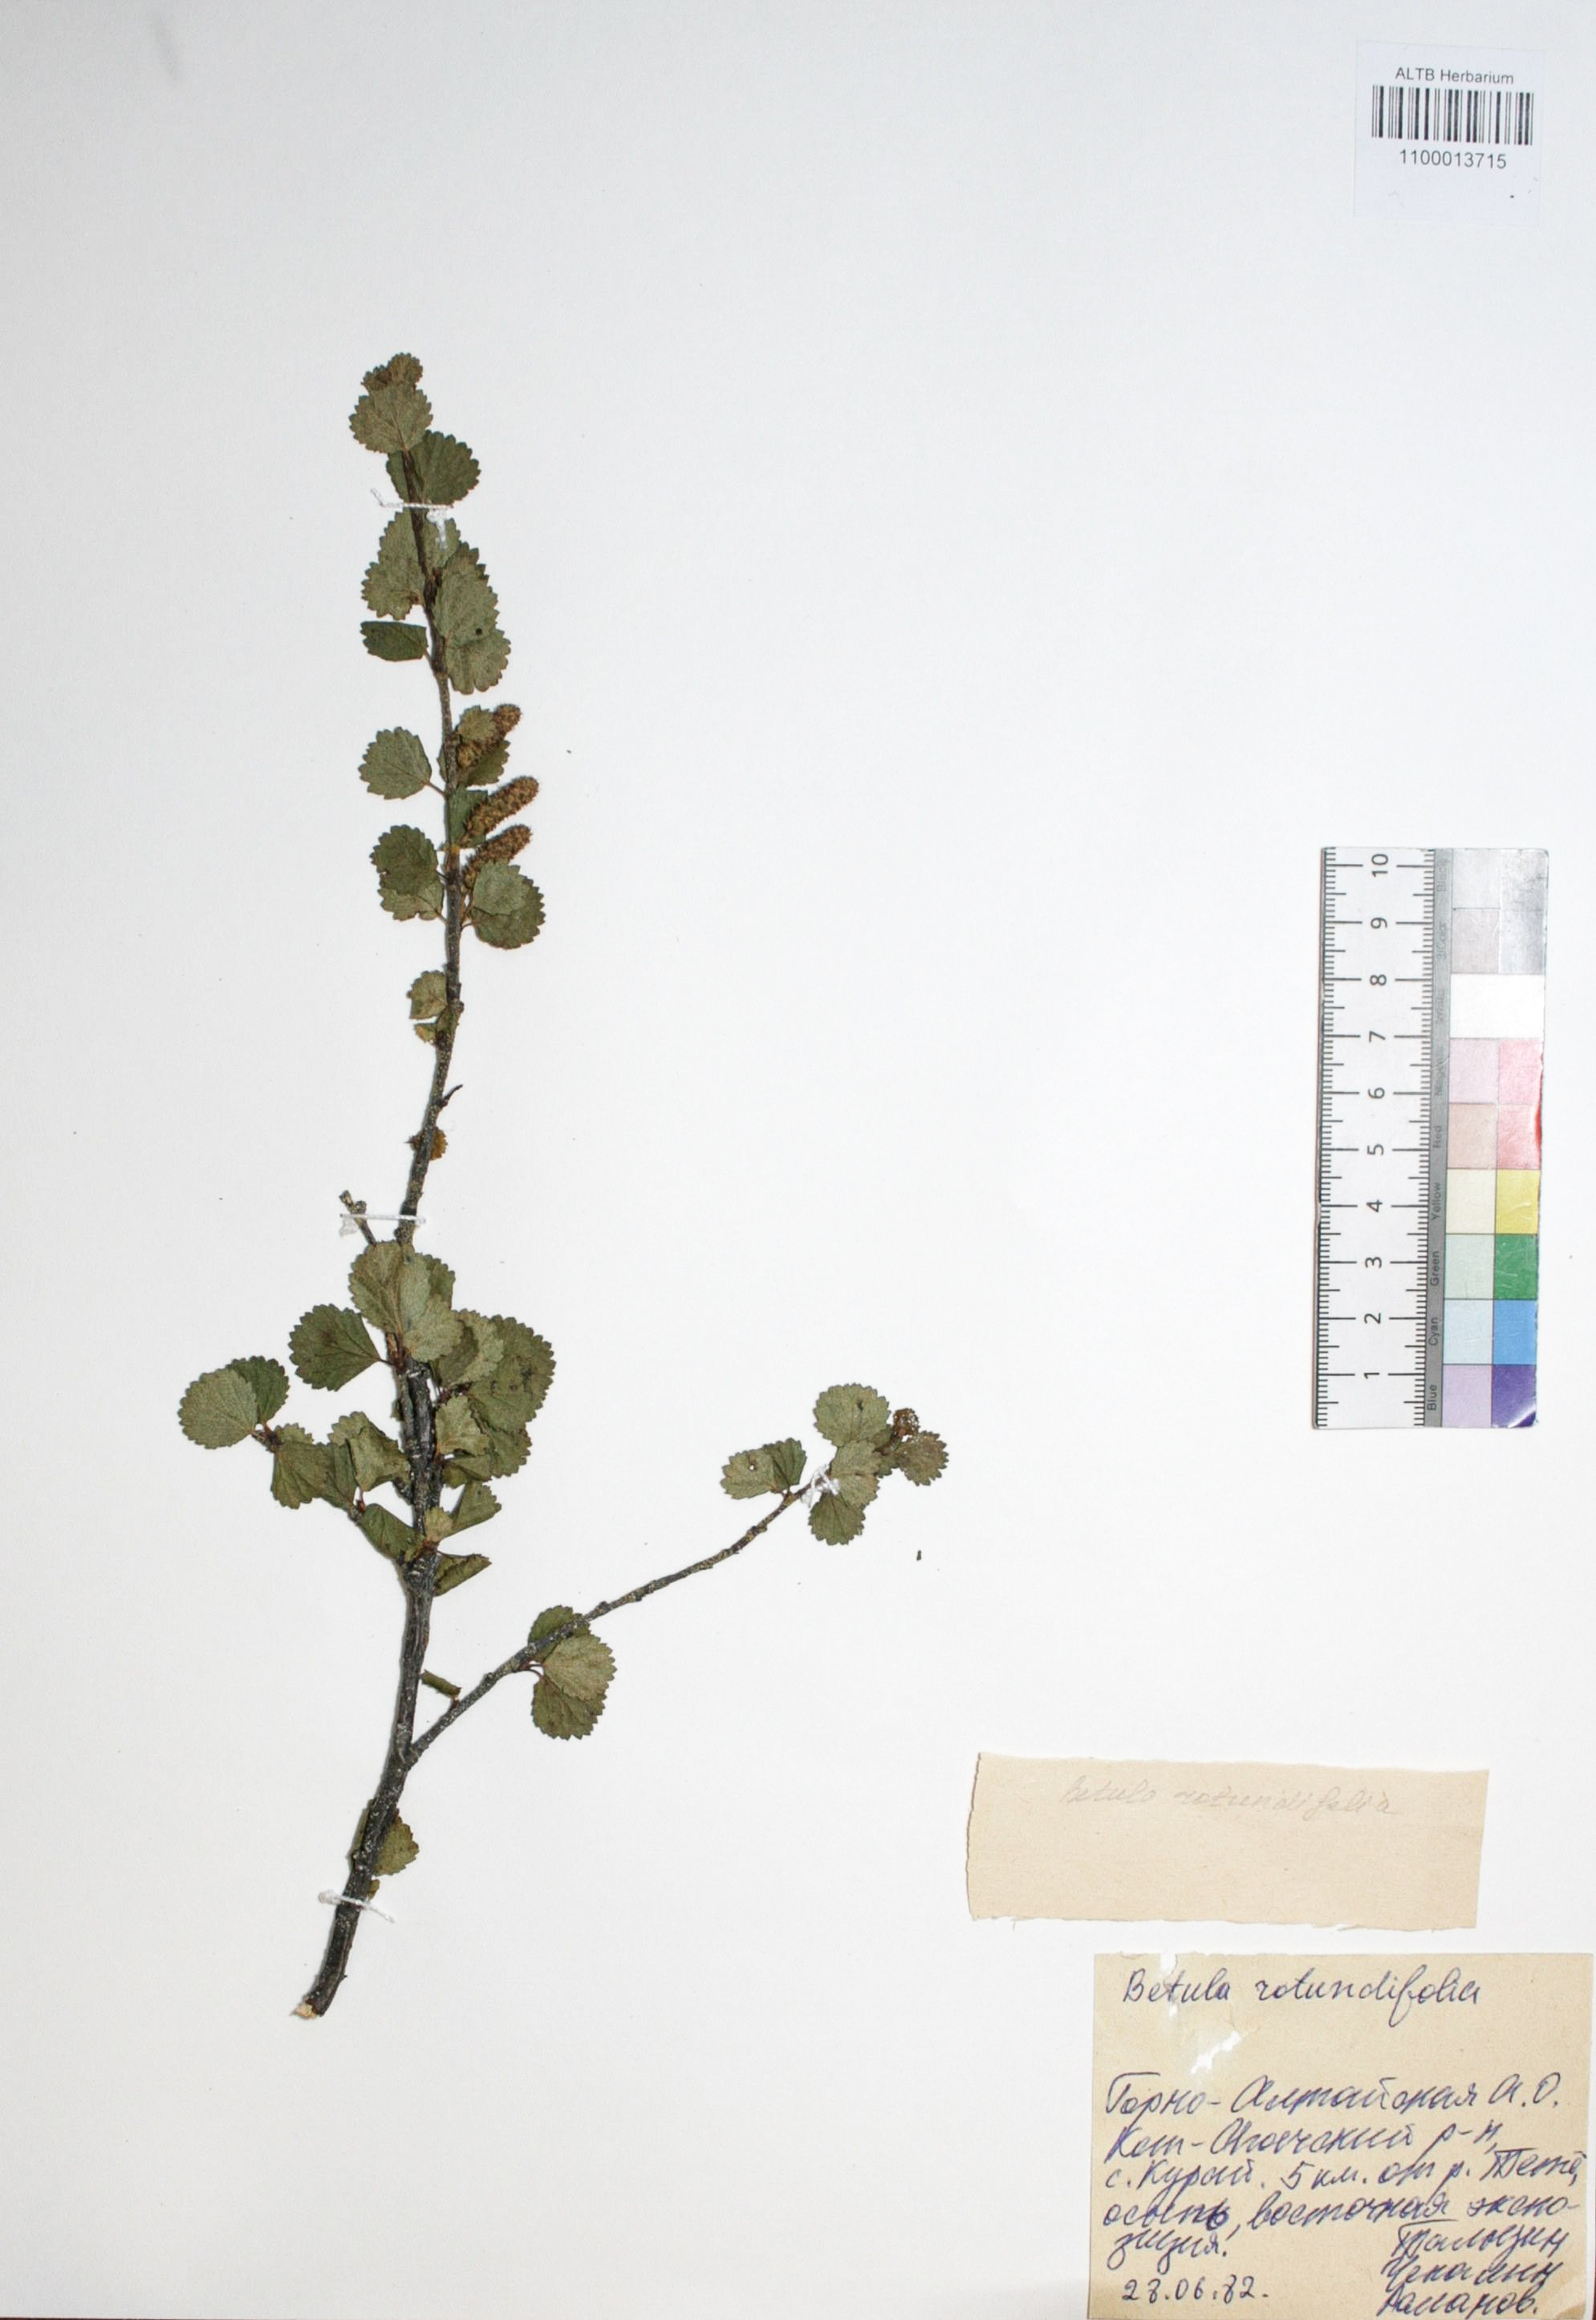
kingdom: Plantae
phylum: Tracheophyta
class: Magnoliopsida
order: Fagales
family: Betulaceae
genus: Betula
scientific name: Betula glandulosa
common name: Dwarf birch
